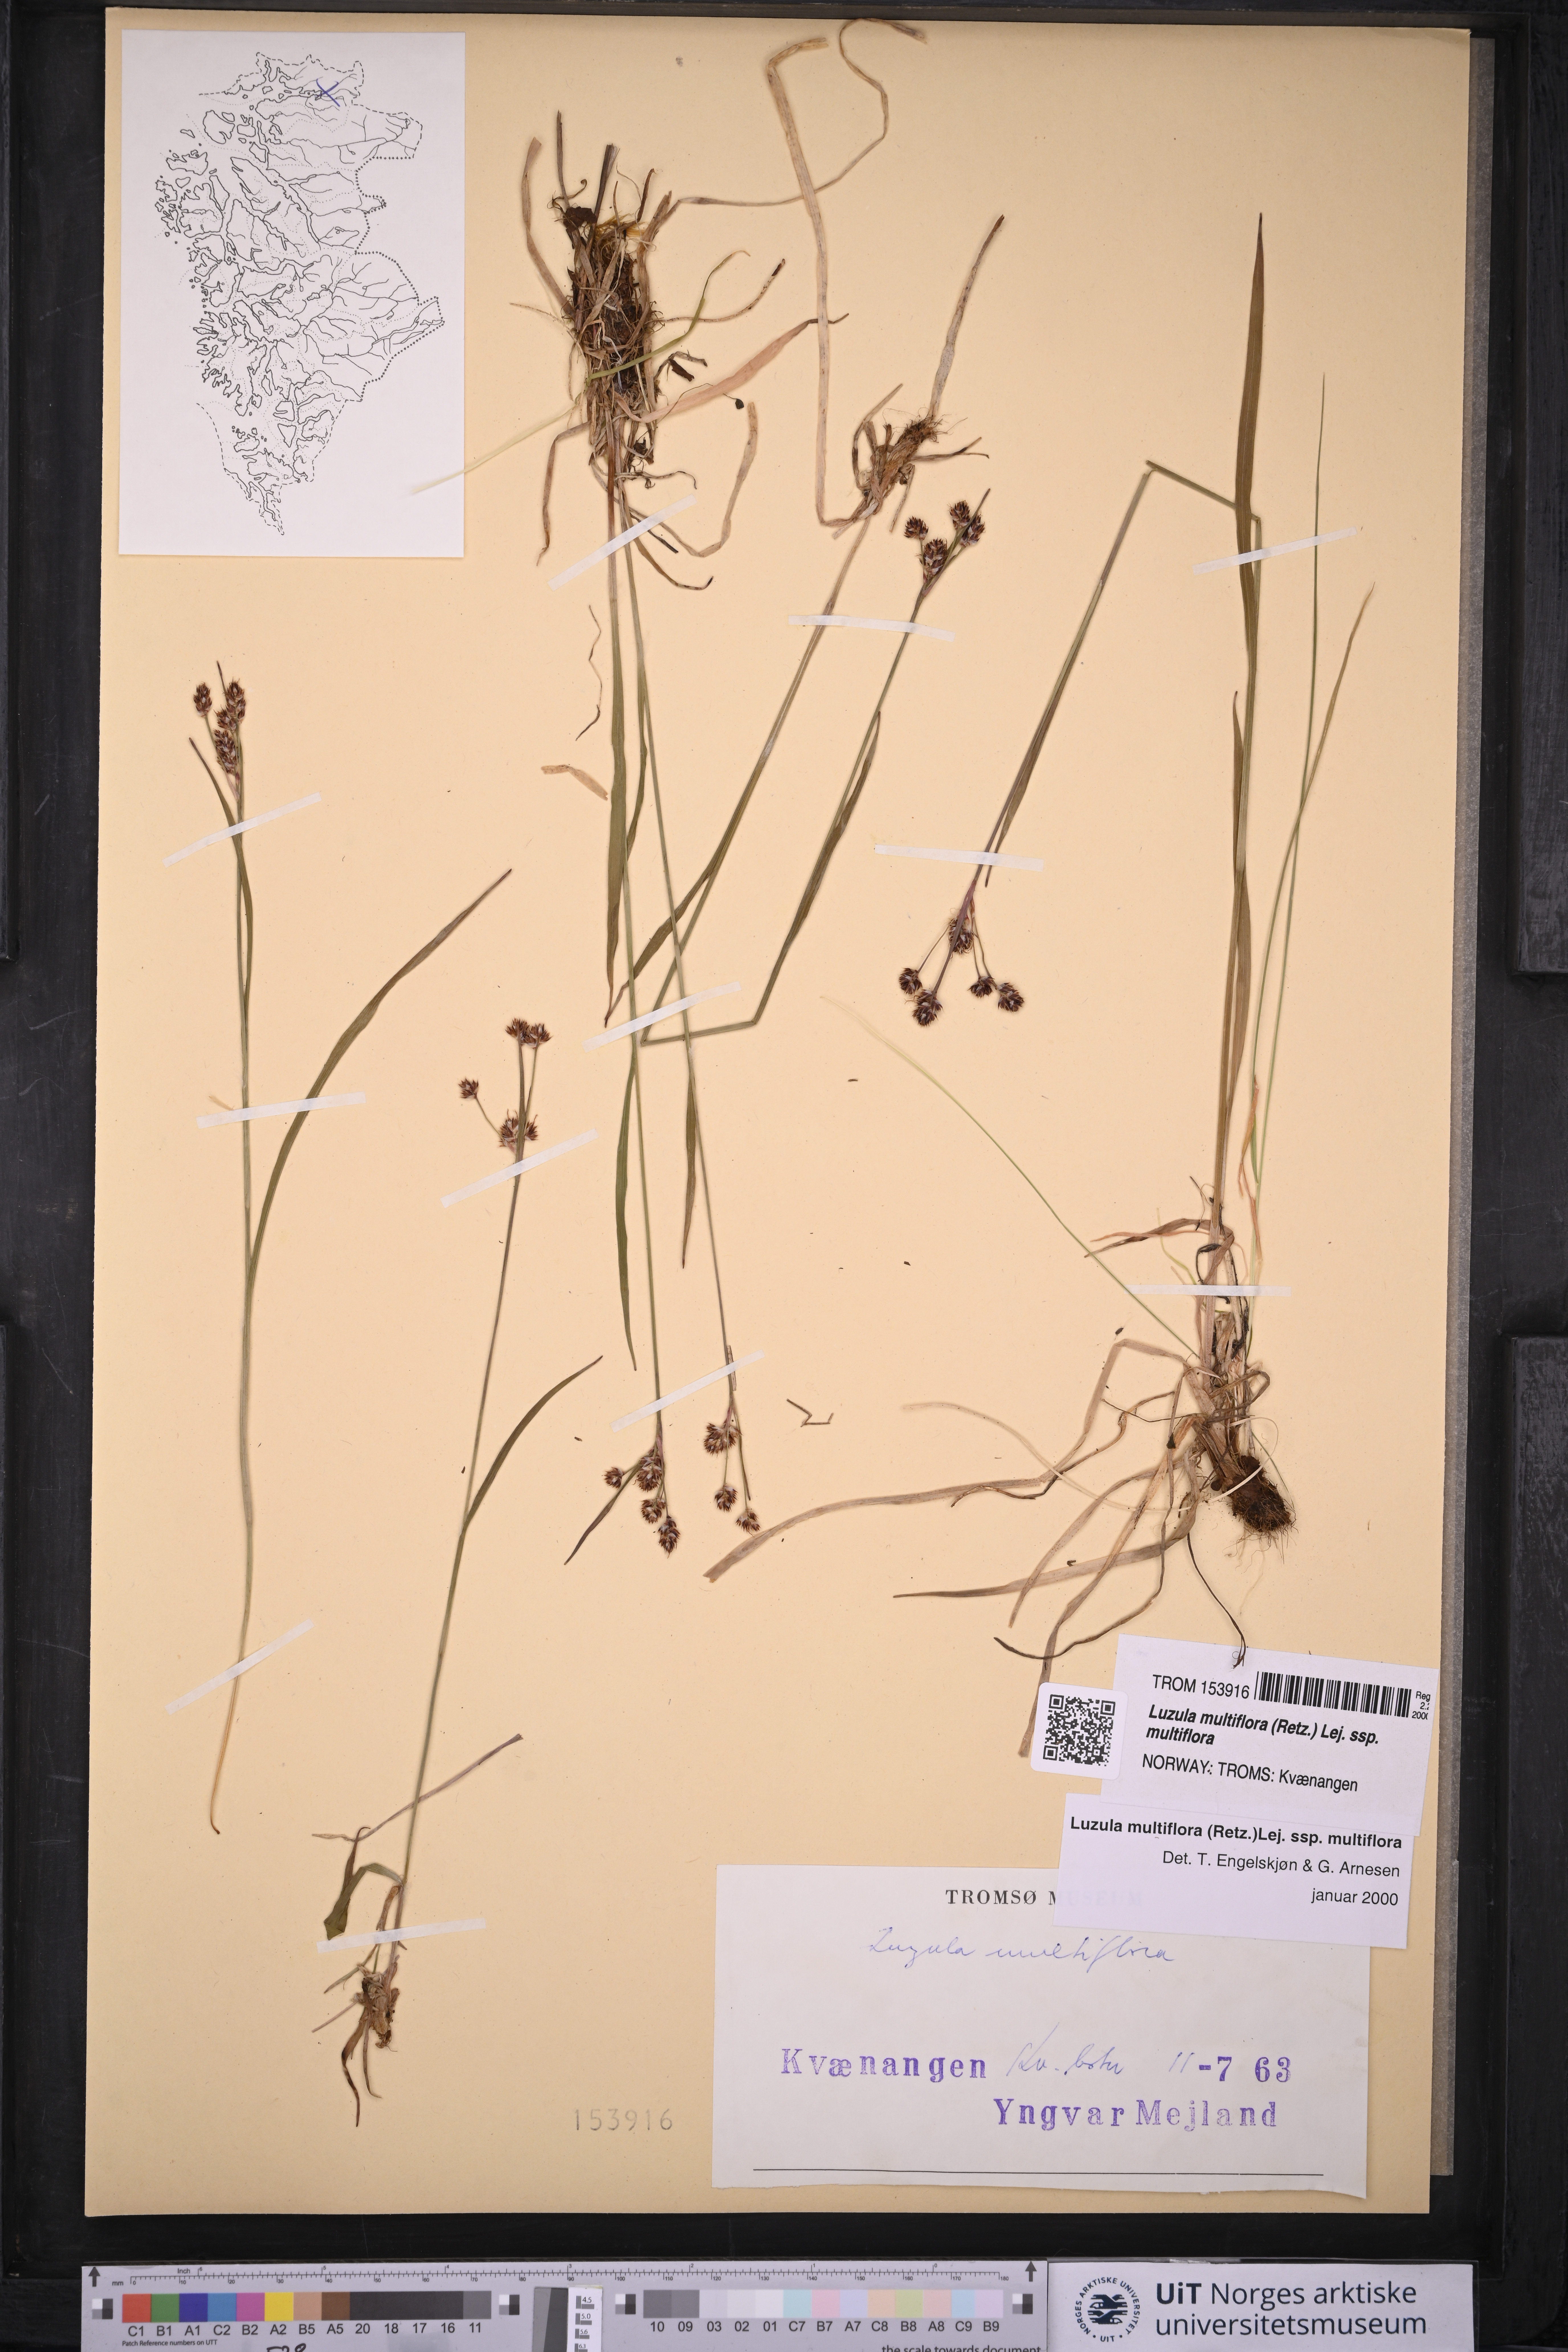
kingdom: Plantae
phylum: Tracheophyta
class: Liliopsida
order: Poales
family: Juncaceae
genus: Luzula
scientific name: Luzula multiflora
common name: Heath wood-rush
